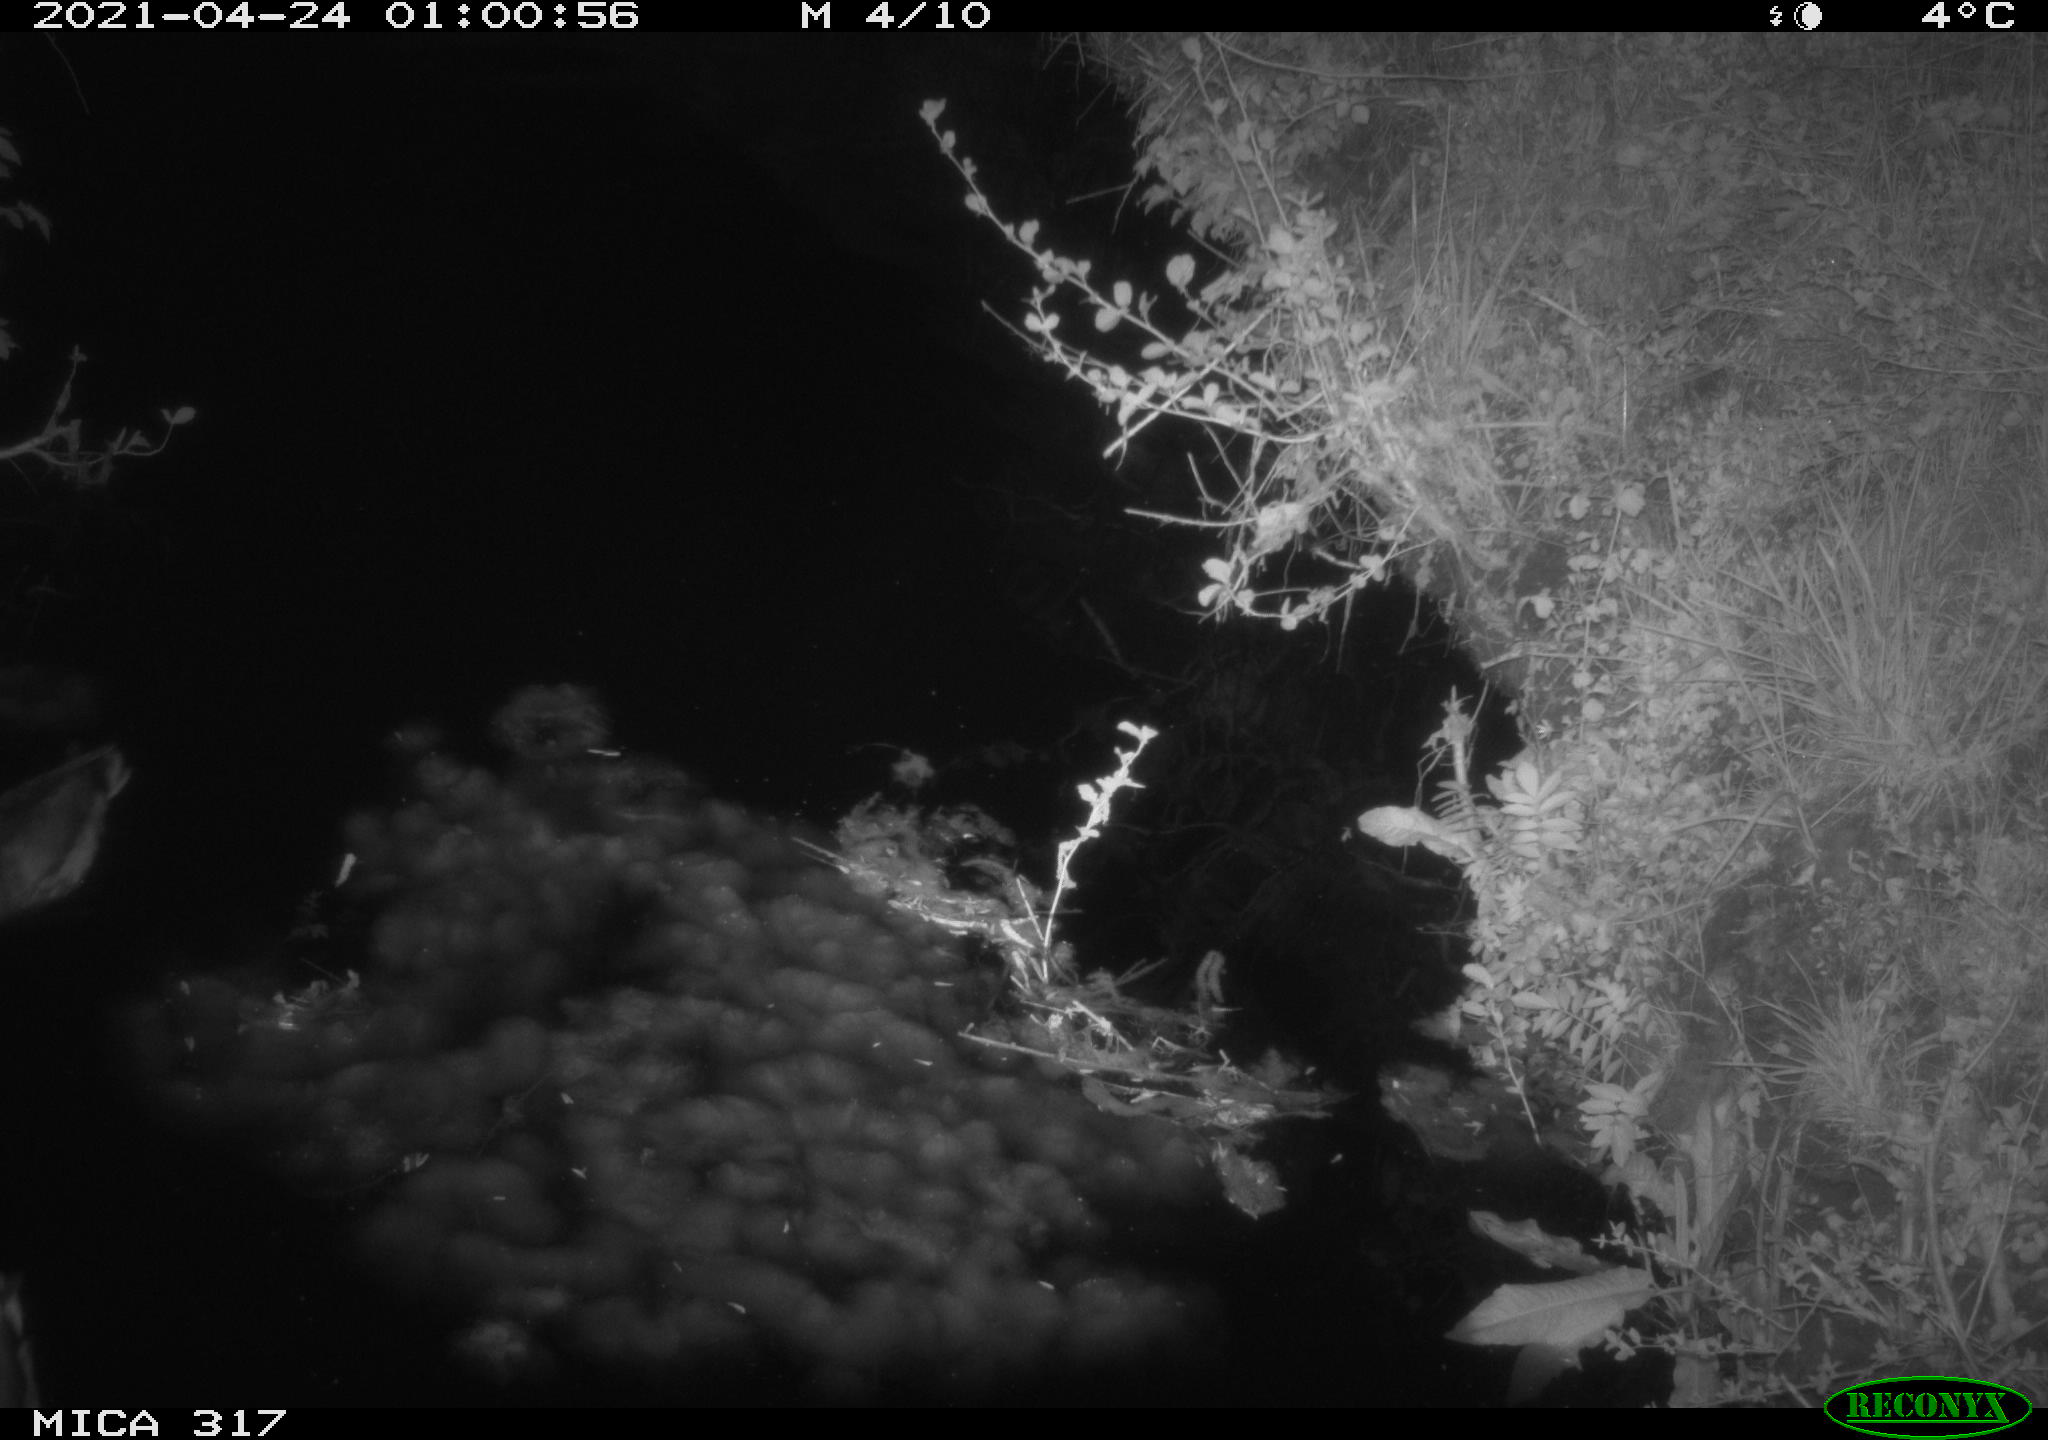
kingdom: Animalia
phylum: Chordata
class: Aves
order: Anseriformes
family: Anatidae
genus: Anas
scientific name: Anas
